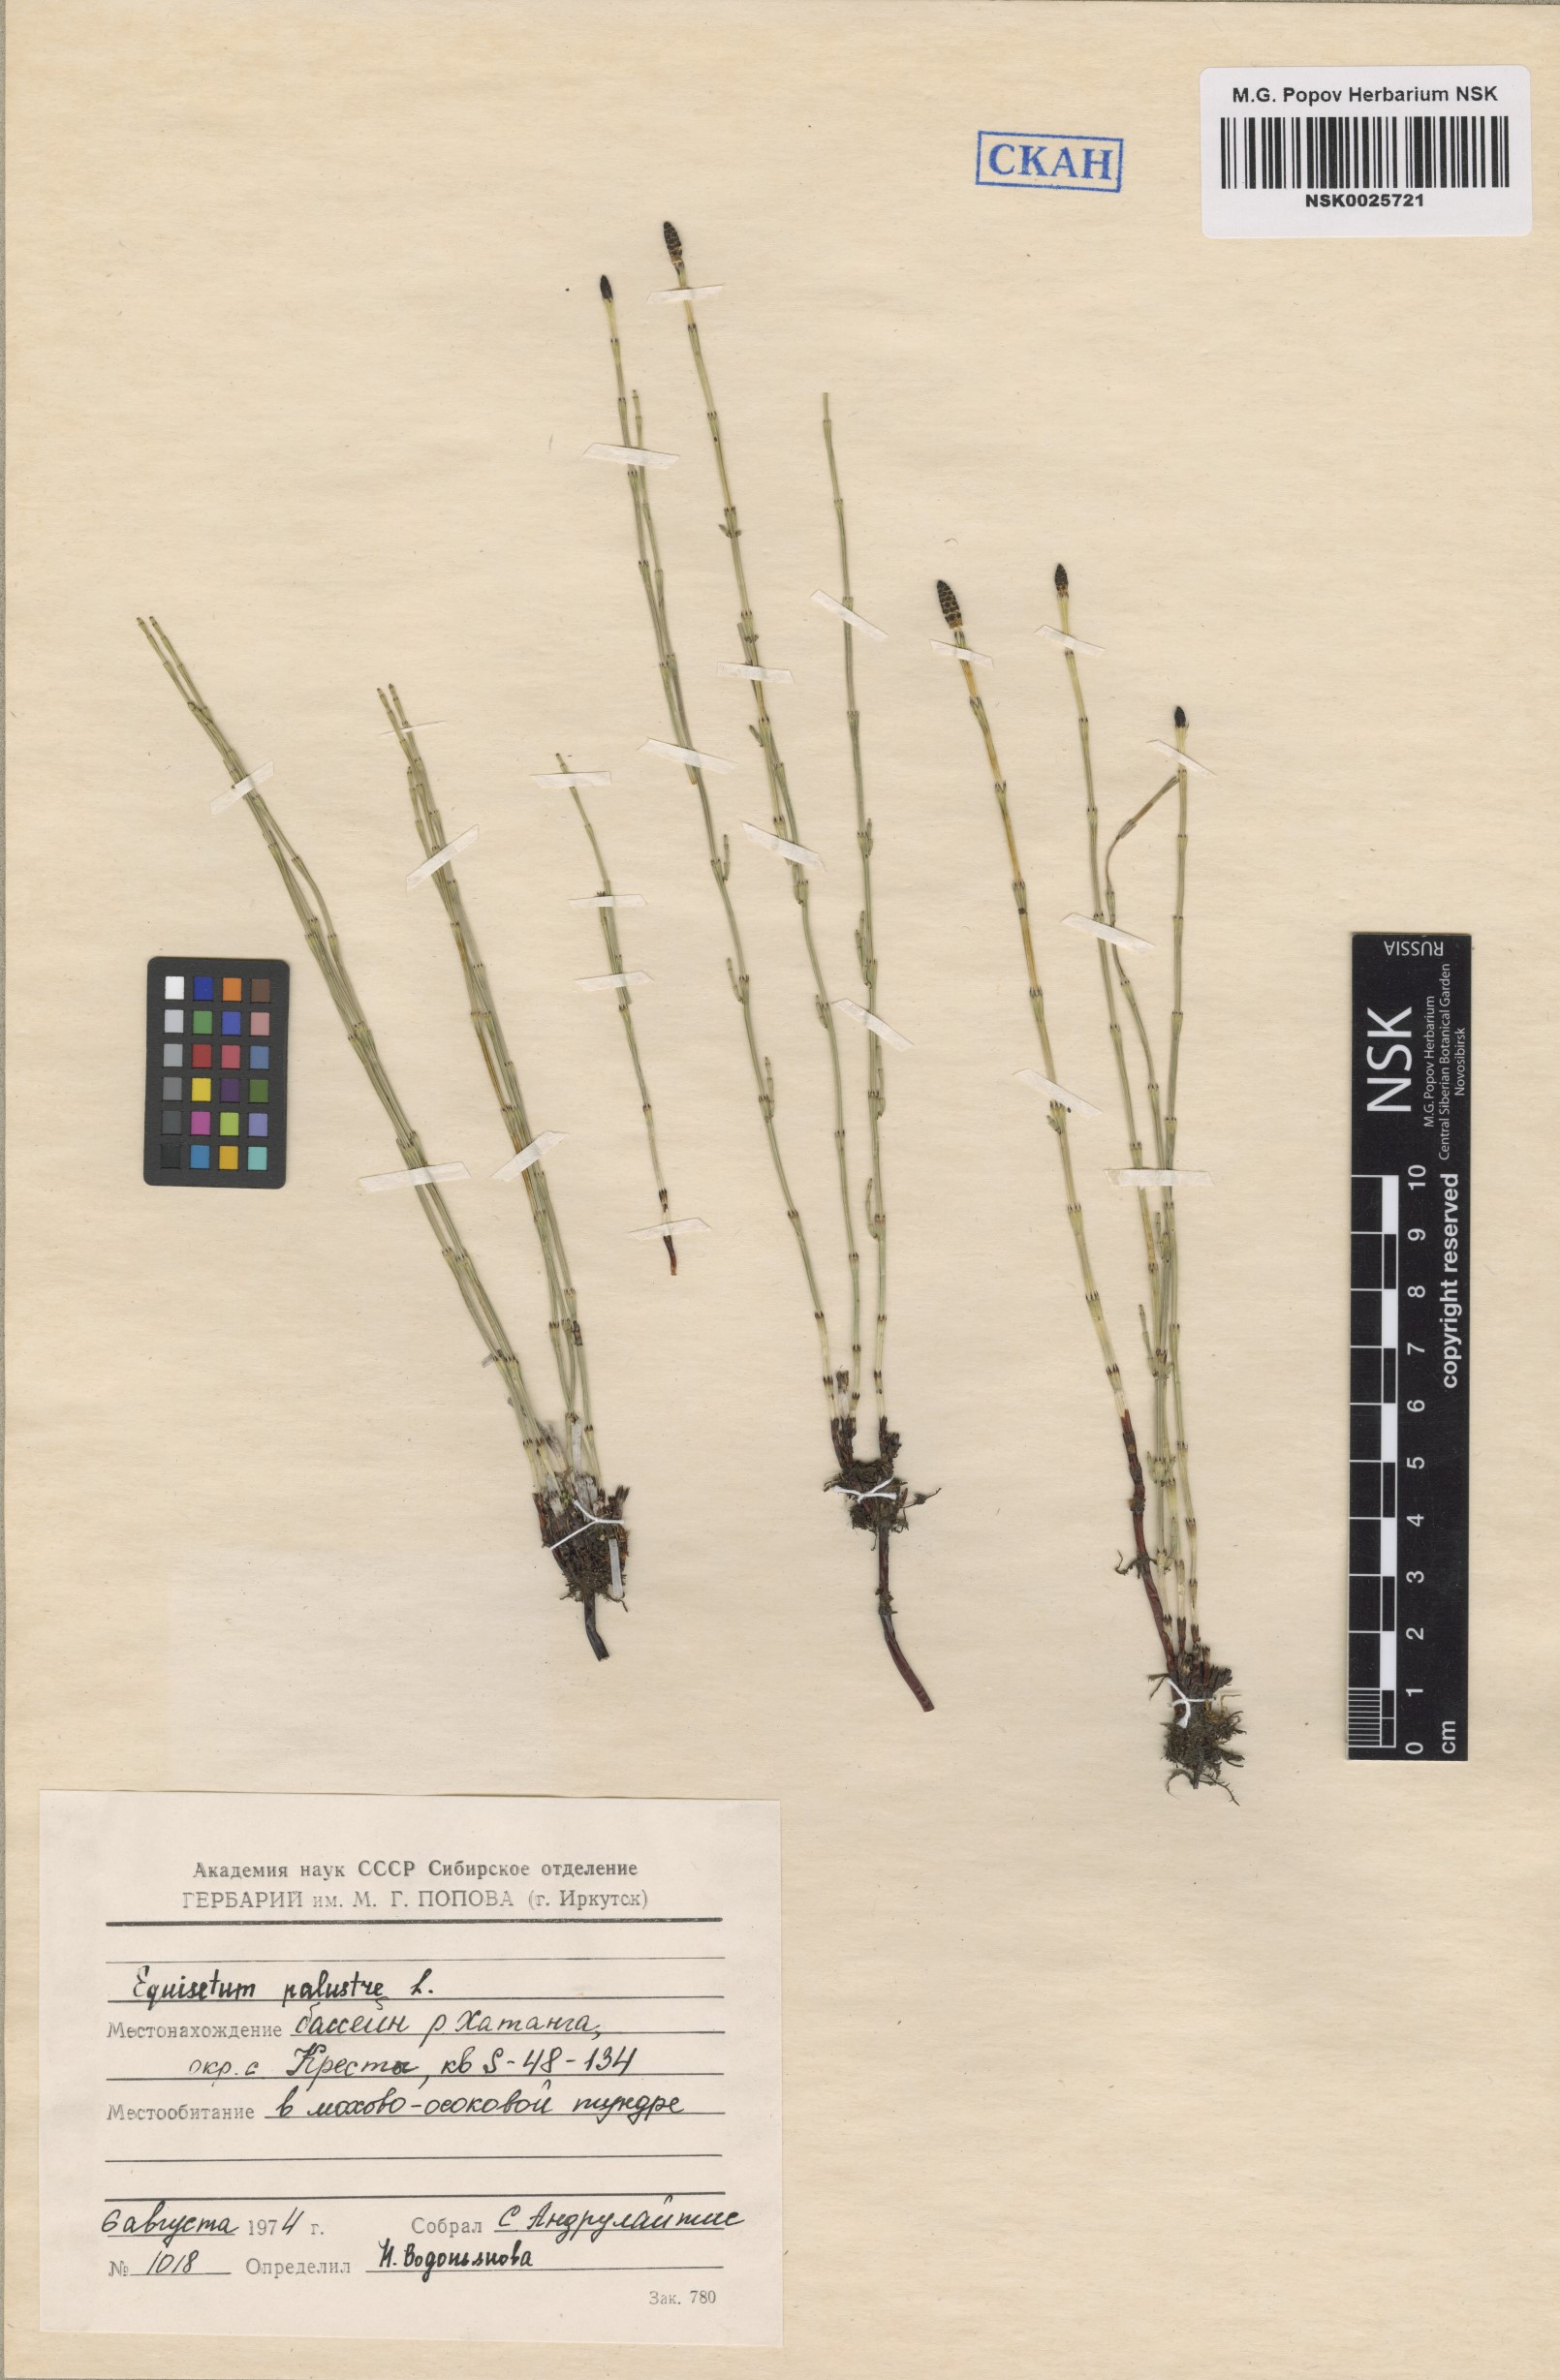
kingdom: Plantae
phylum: Tracheophyta
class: Polypodiopsida
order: Equisetales
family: Equisetaceae
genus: Equisetum
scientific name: Equisetum palustre
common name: Marsh horsetail
